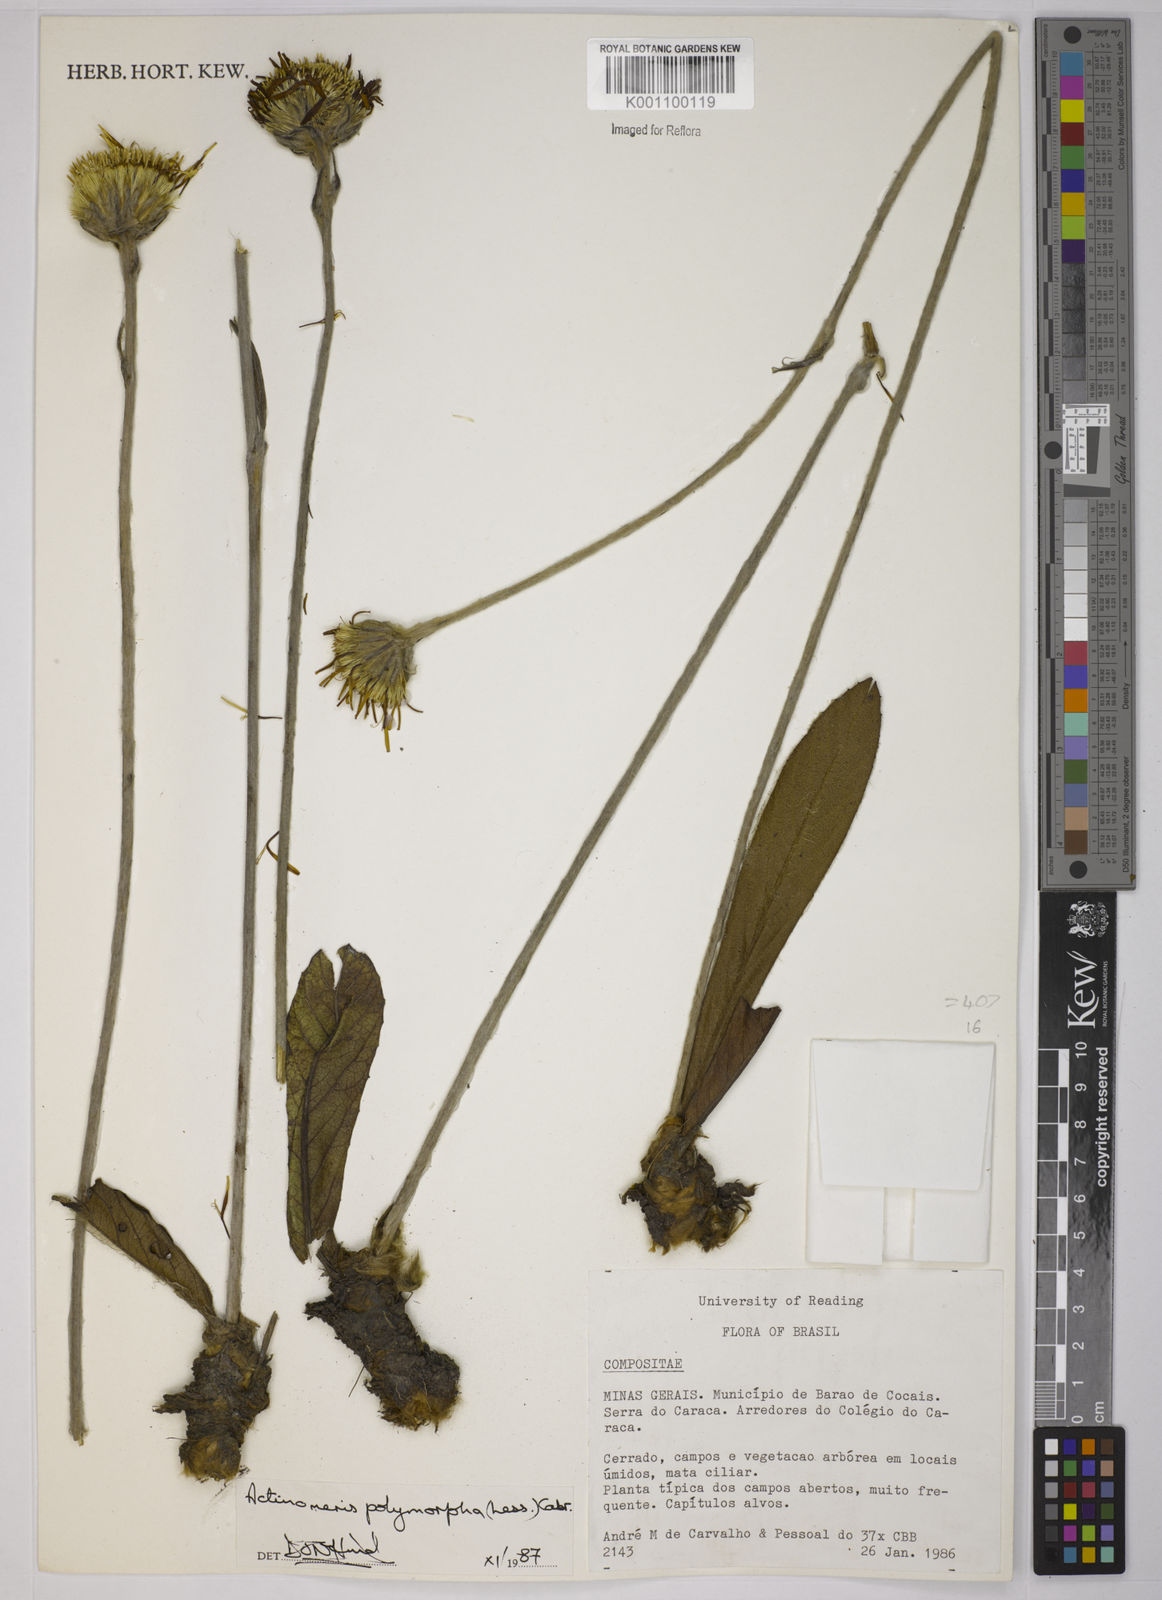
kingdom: Plantae
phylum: Tracheophyta
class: Magnoliopsida
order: Asterales
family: Asteraceae
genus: Richterago
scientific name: Richterago polymorpha
